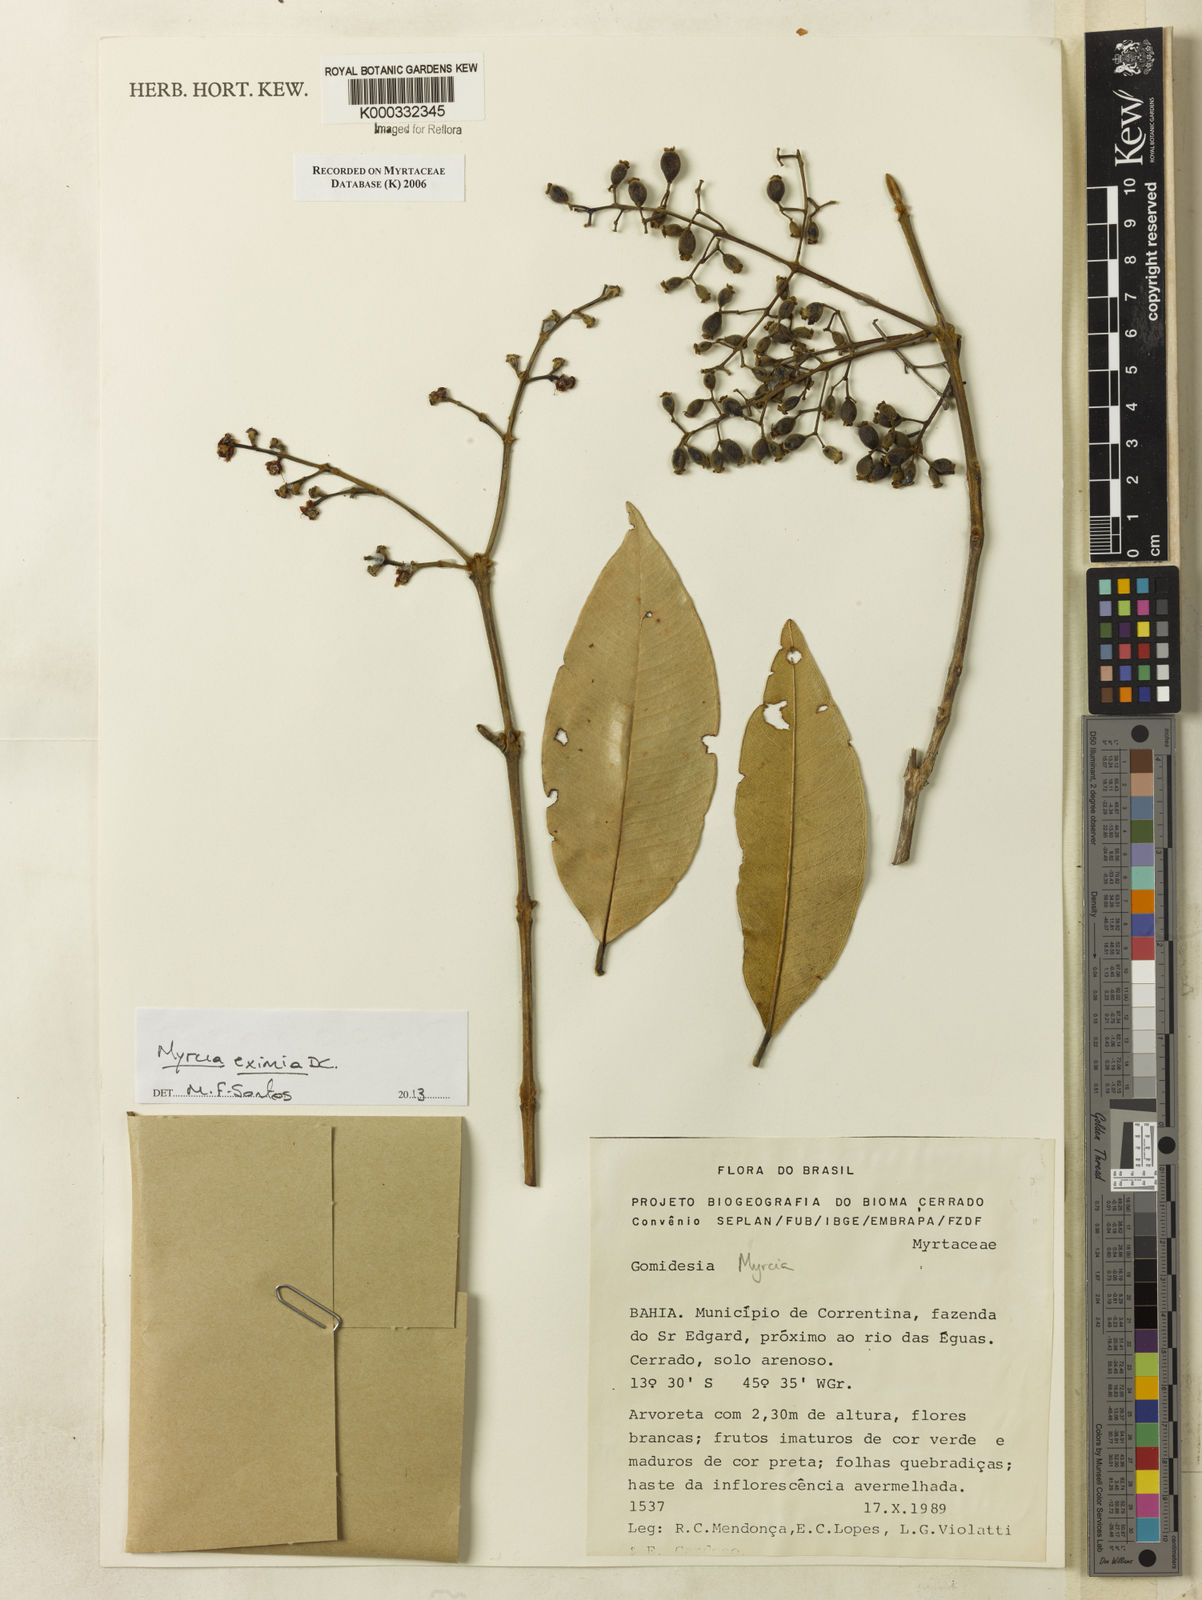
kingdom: Plantae
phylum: Tracheophyta
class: Magnoliopsida
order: Myrtales
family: Myrtaceae
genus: Myrcia
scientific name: Myrcia
